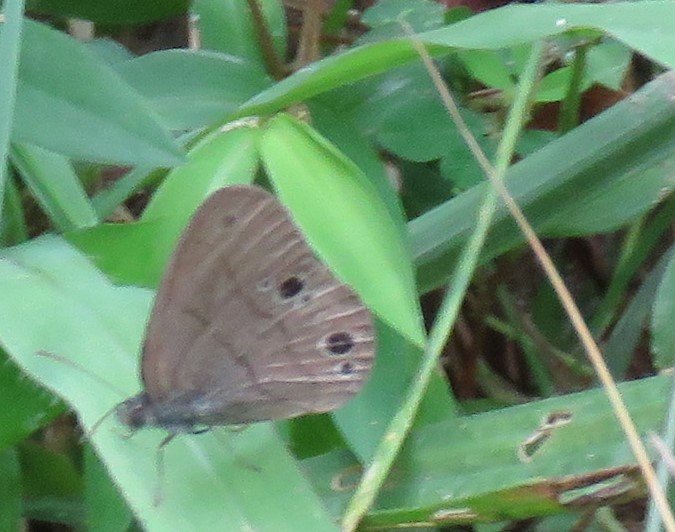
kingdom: Animalia
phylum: Arthropoda
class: Insecta
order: Lepidoptera
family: Nymphalidae
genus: Hermeuptychia
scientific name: Hermeuptychia hermes
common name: Carolina Satyr
